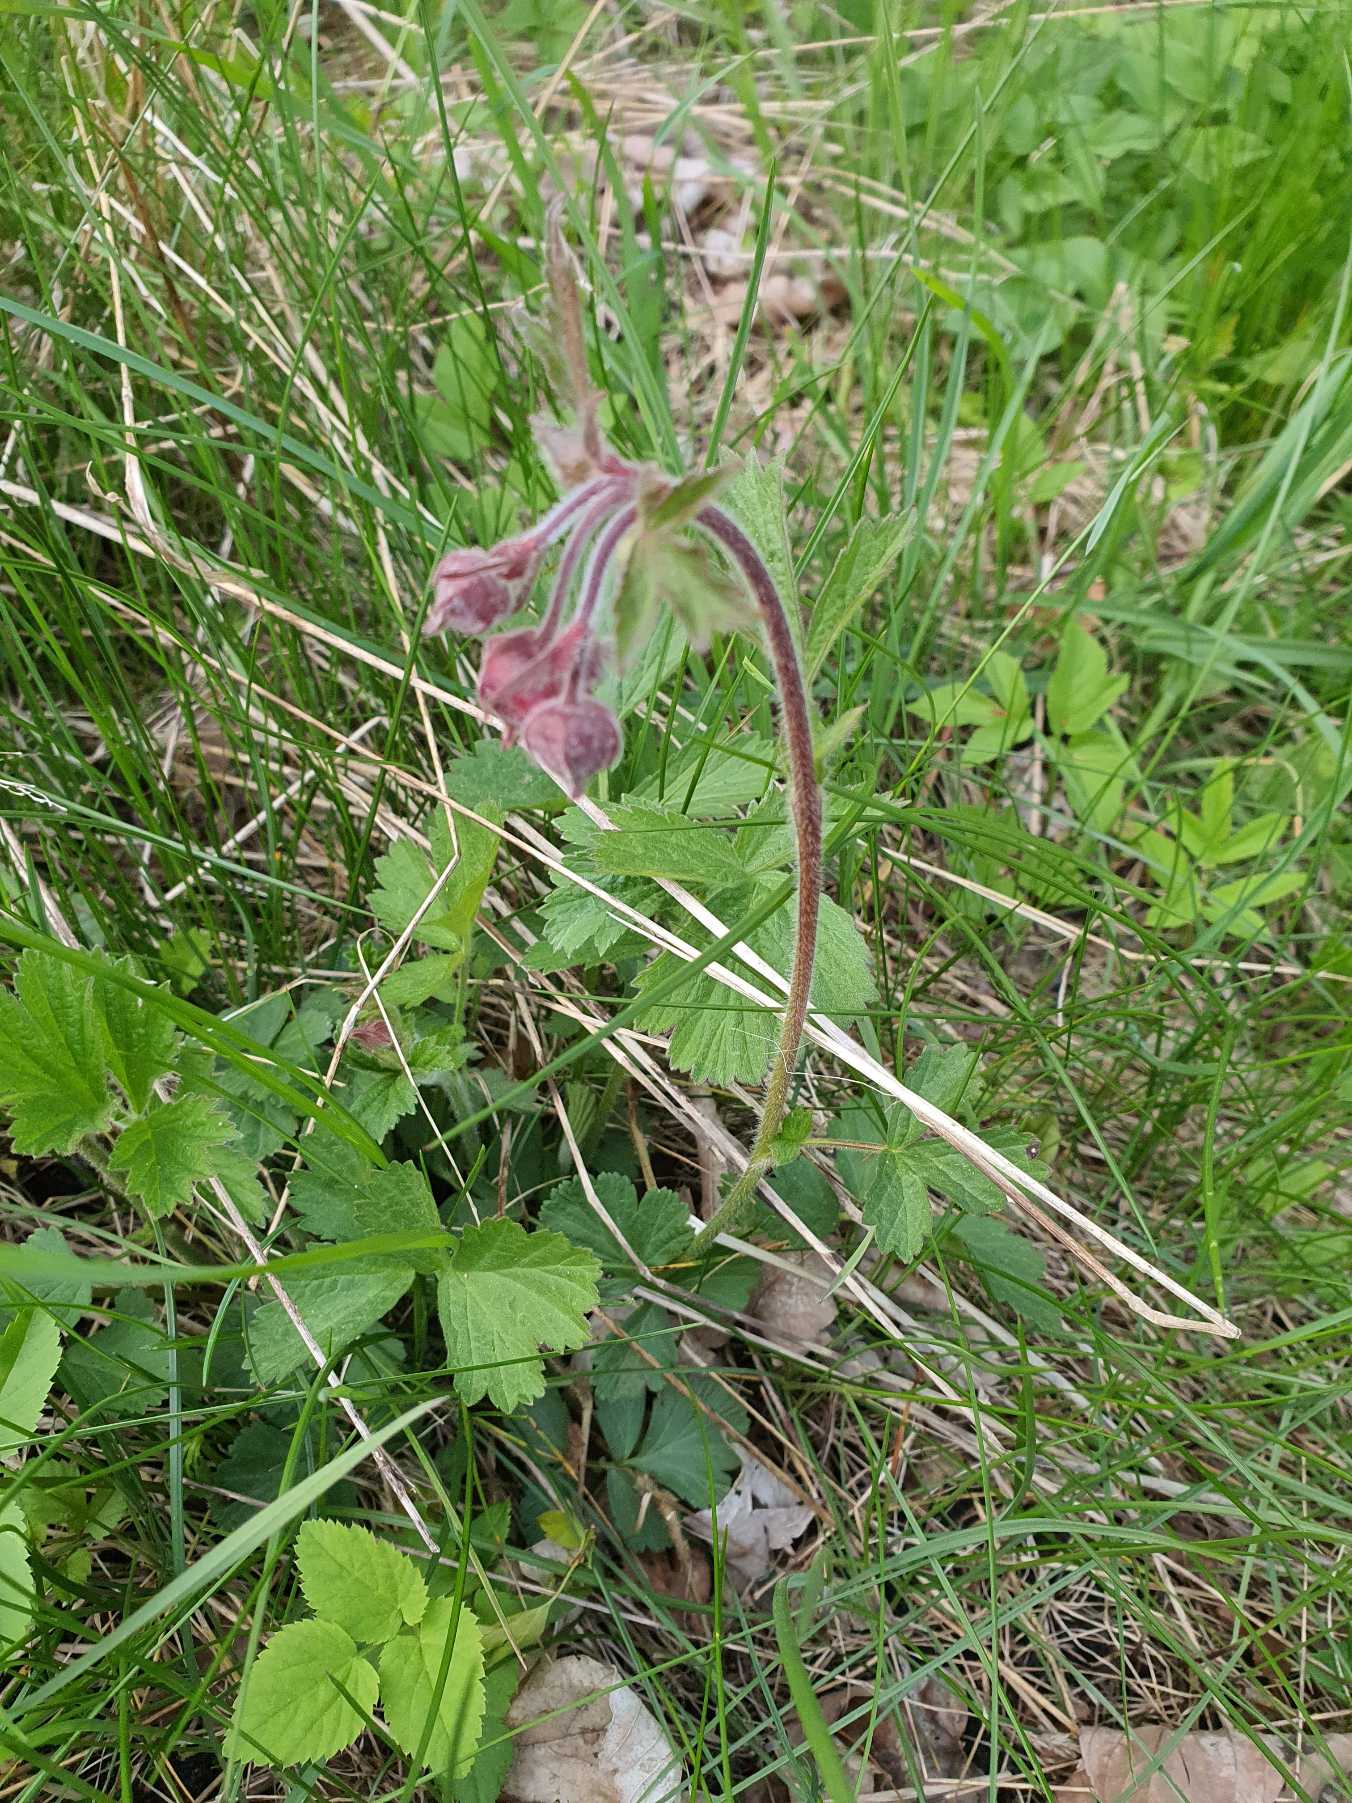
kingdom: Plantae
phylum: Tracheophyta
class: Magnoliopsida
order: Rosales
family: Rosaceae
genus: Geum
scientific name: Geum rivale
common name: Eng-nellikerod
